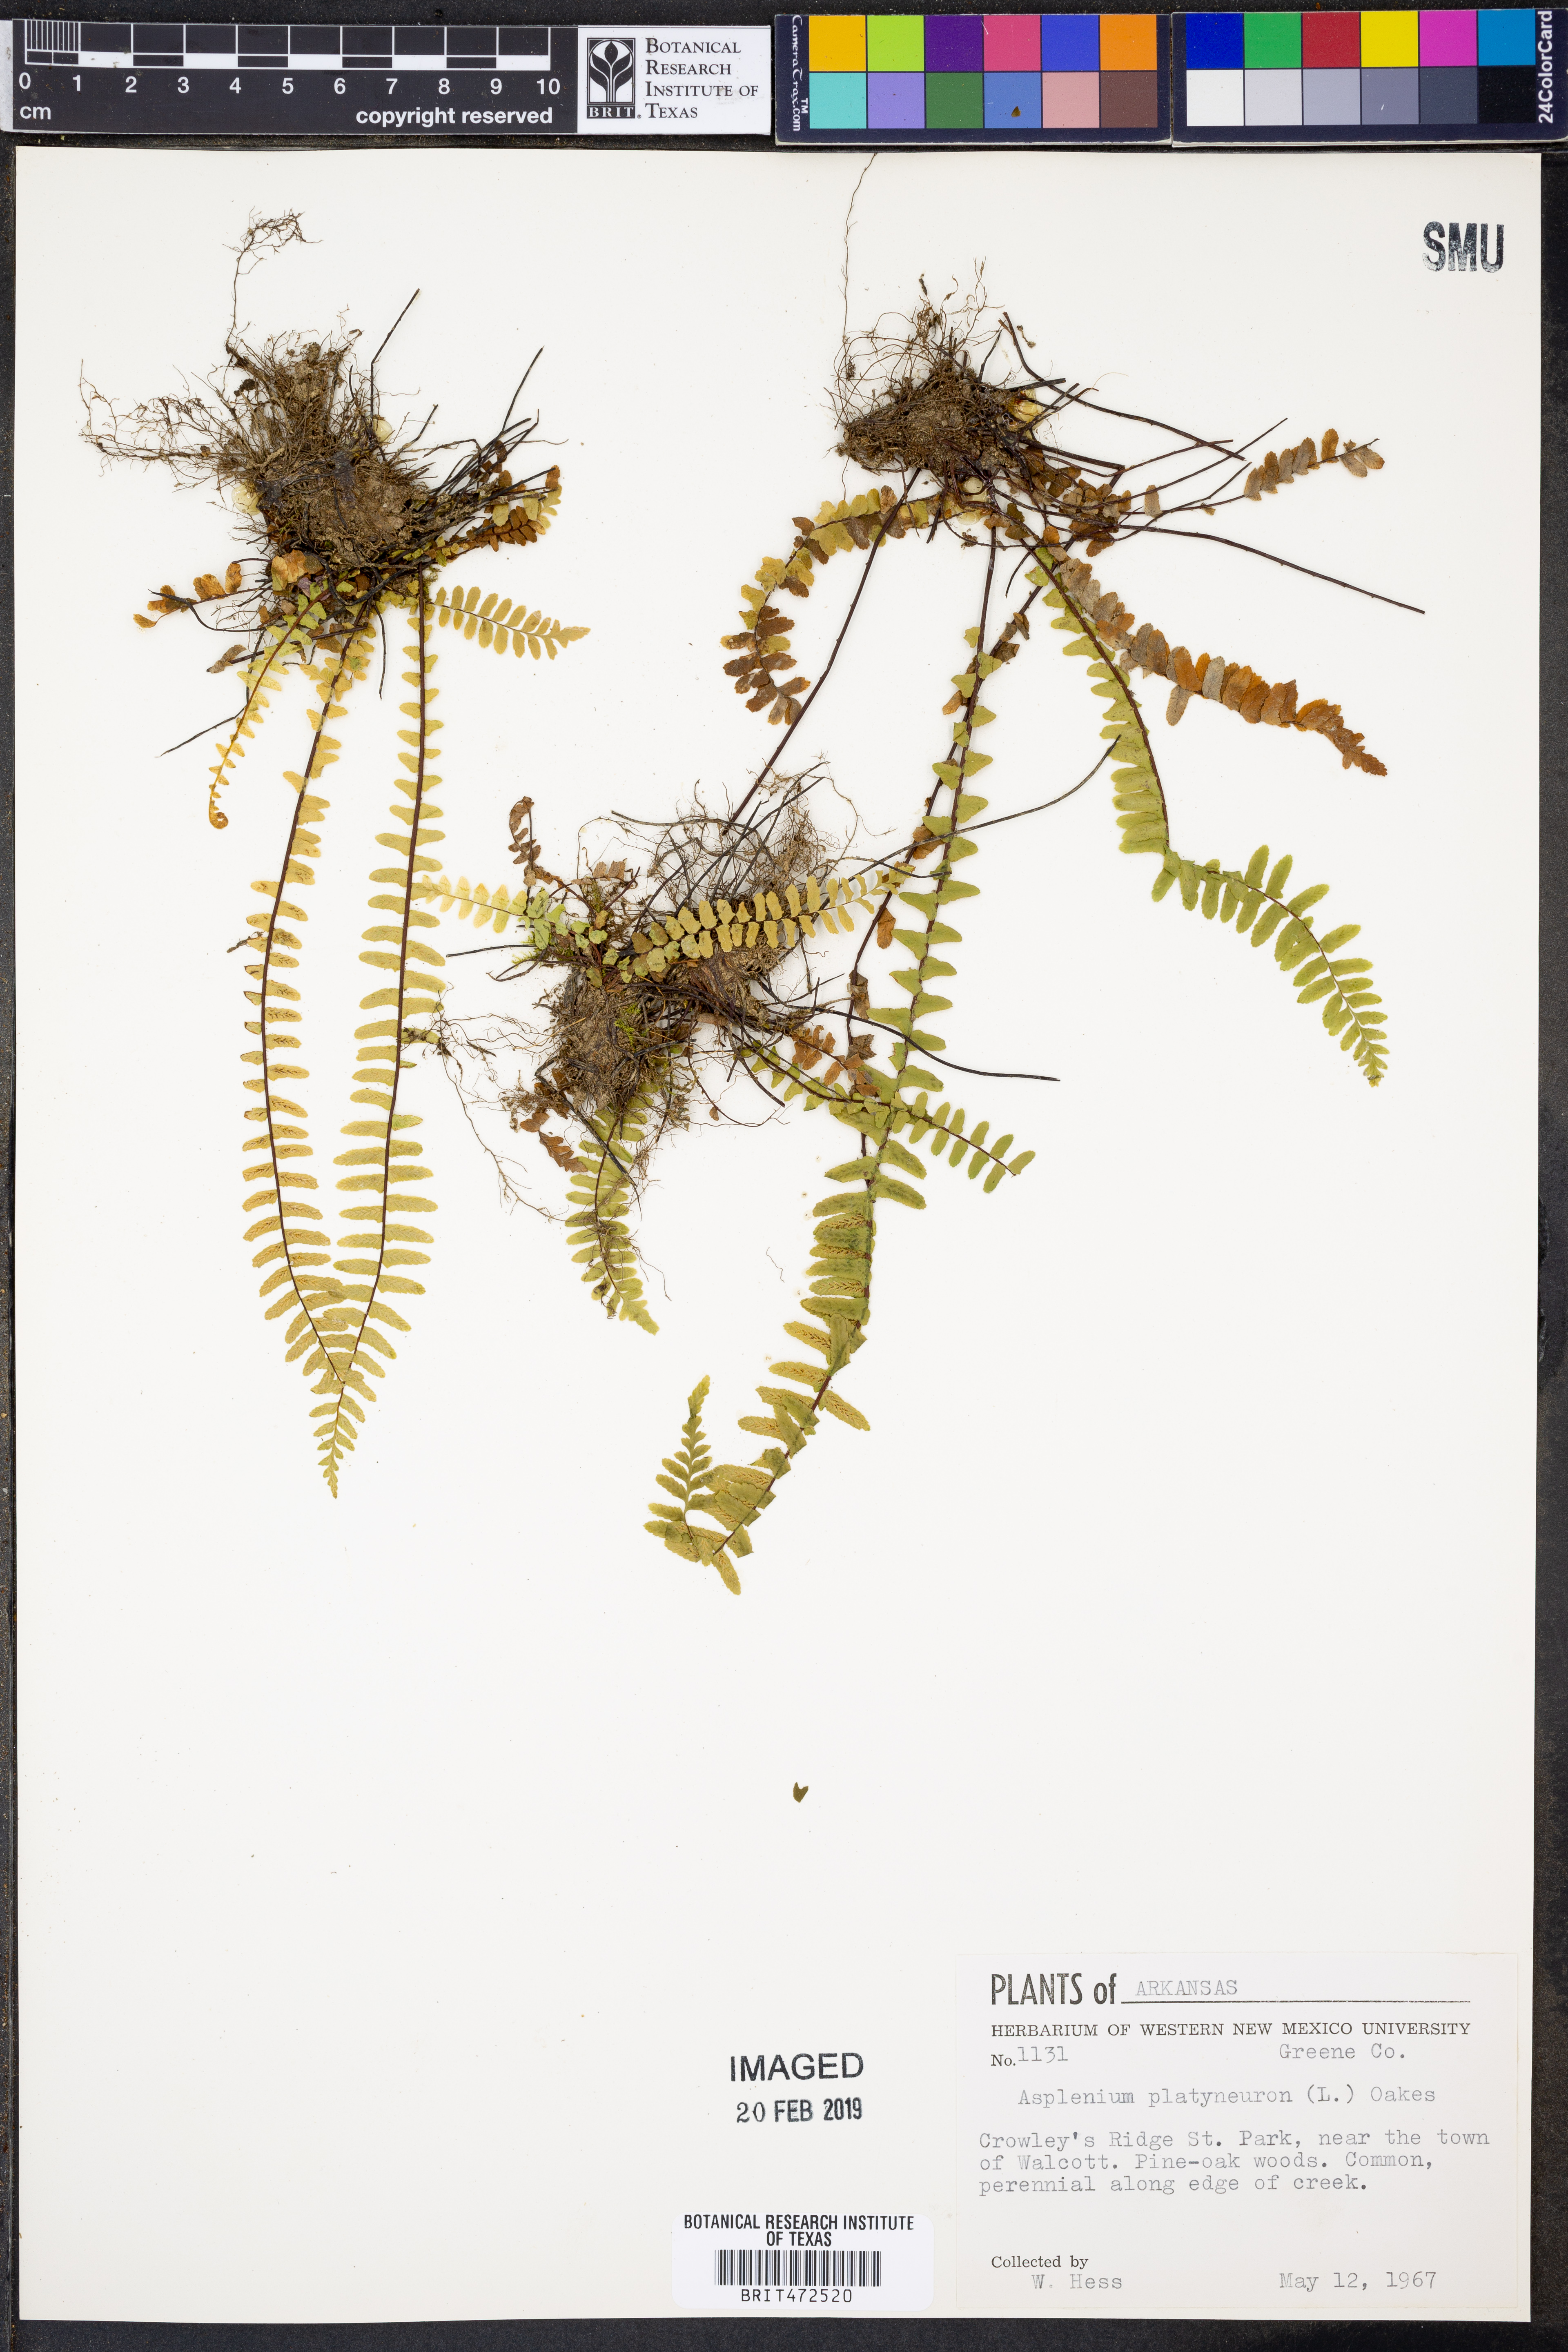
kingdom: Plantae
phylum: Tracheophyta
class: Polypodiopsida
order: Polypodiales
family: Aspleniaceae
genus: Asplenium
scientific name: Asplenium platyneuron
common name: Ebony spleenwort
